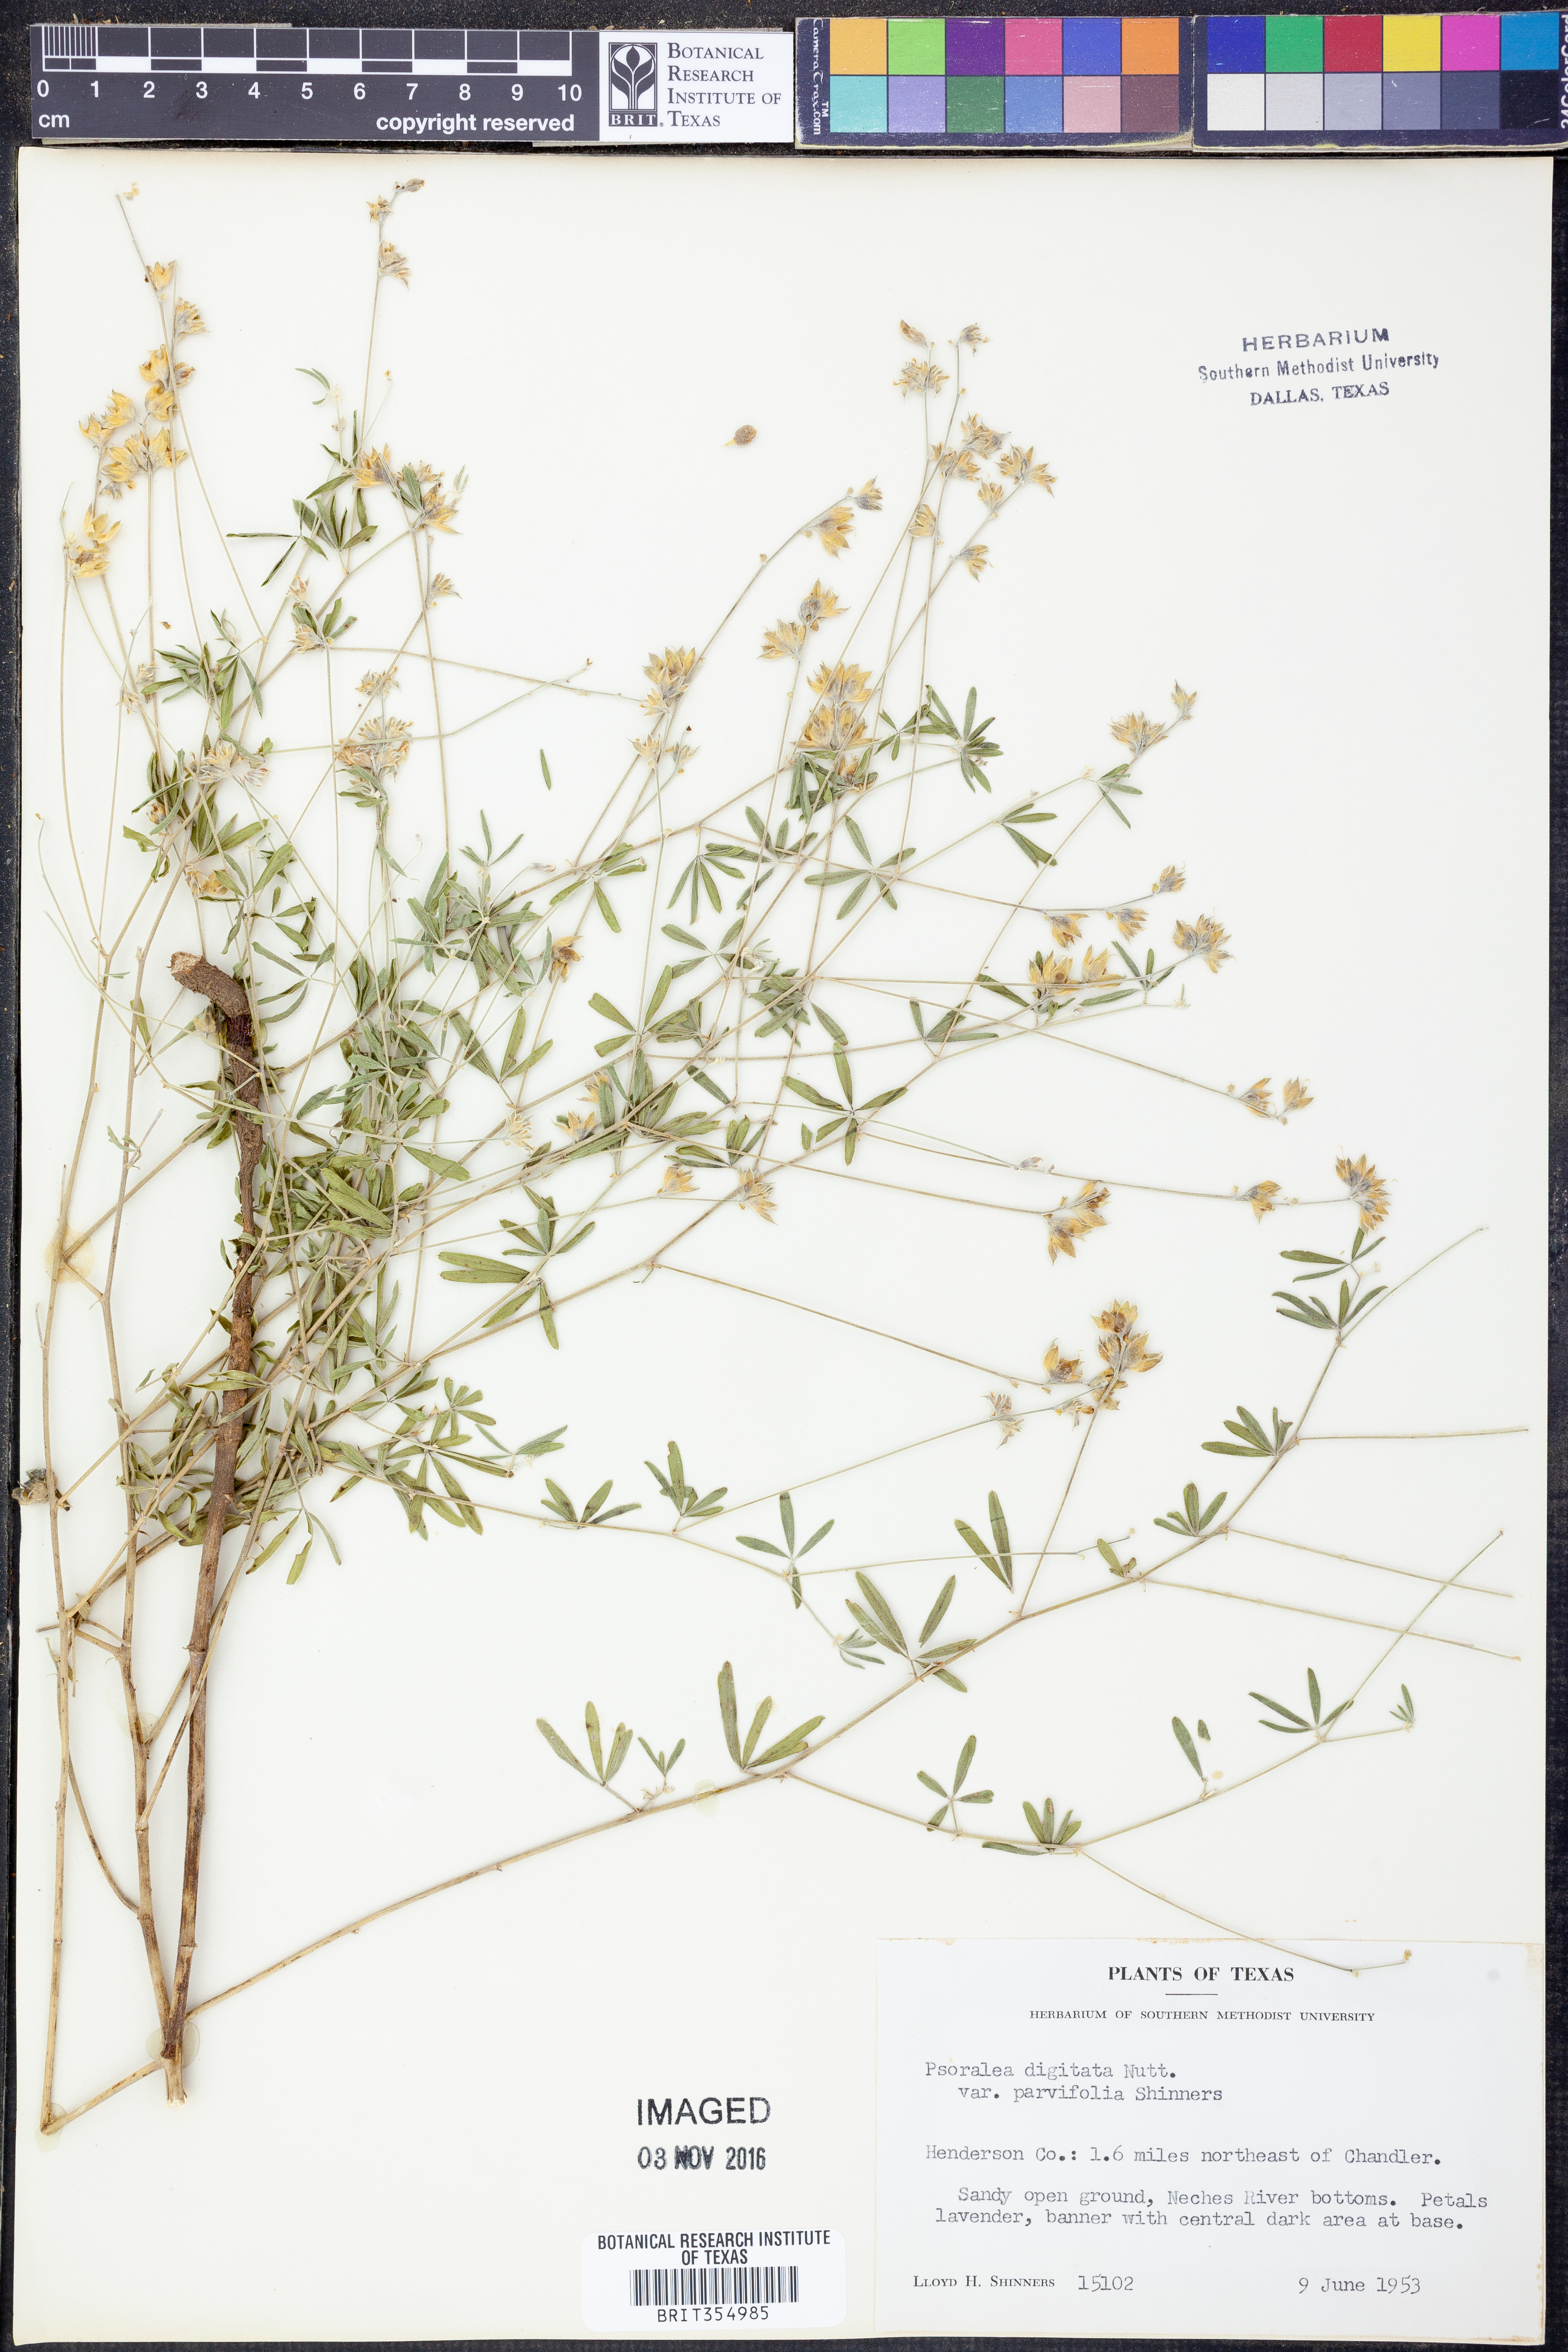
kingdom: Plantae
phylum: Tracheophyta
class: Magnoliopsida
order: Fabales
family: Fabaceae
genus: Pediomelum
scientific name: Pediomelum digitatum
